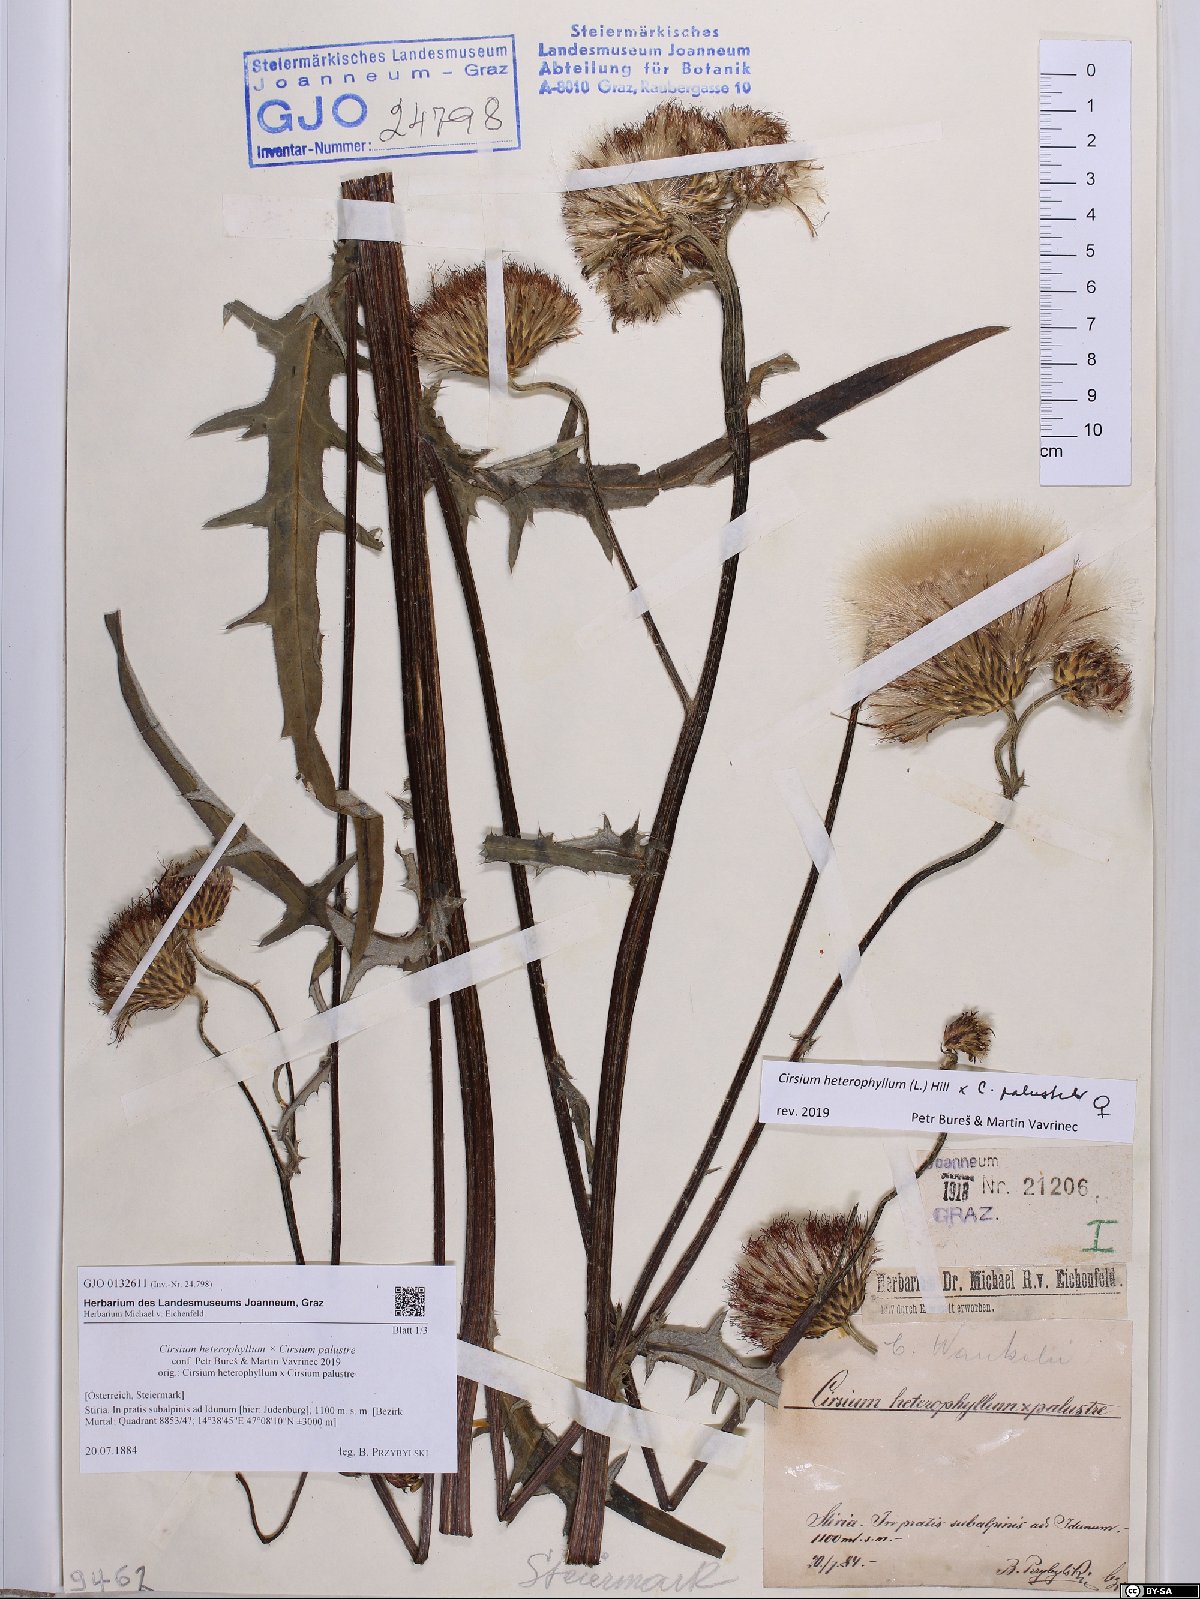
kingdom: Plantae
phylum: Tracheophyta
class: Magnoliopsida
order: Asterales
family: Asteraceae
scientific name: Asteraceae
